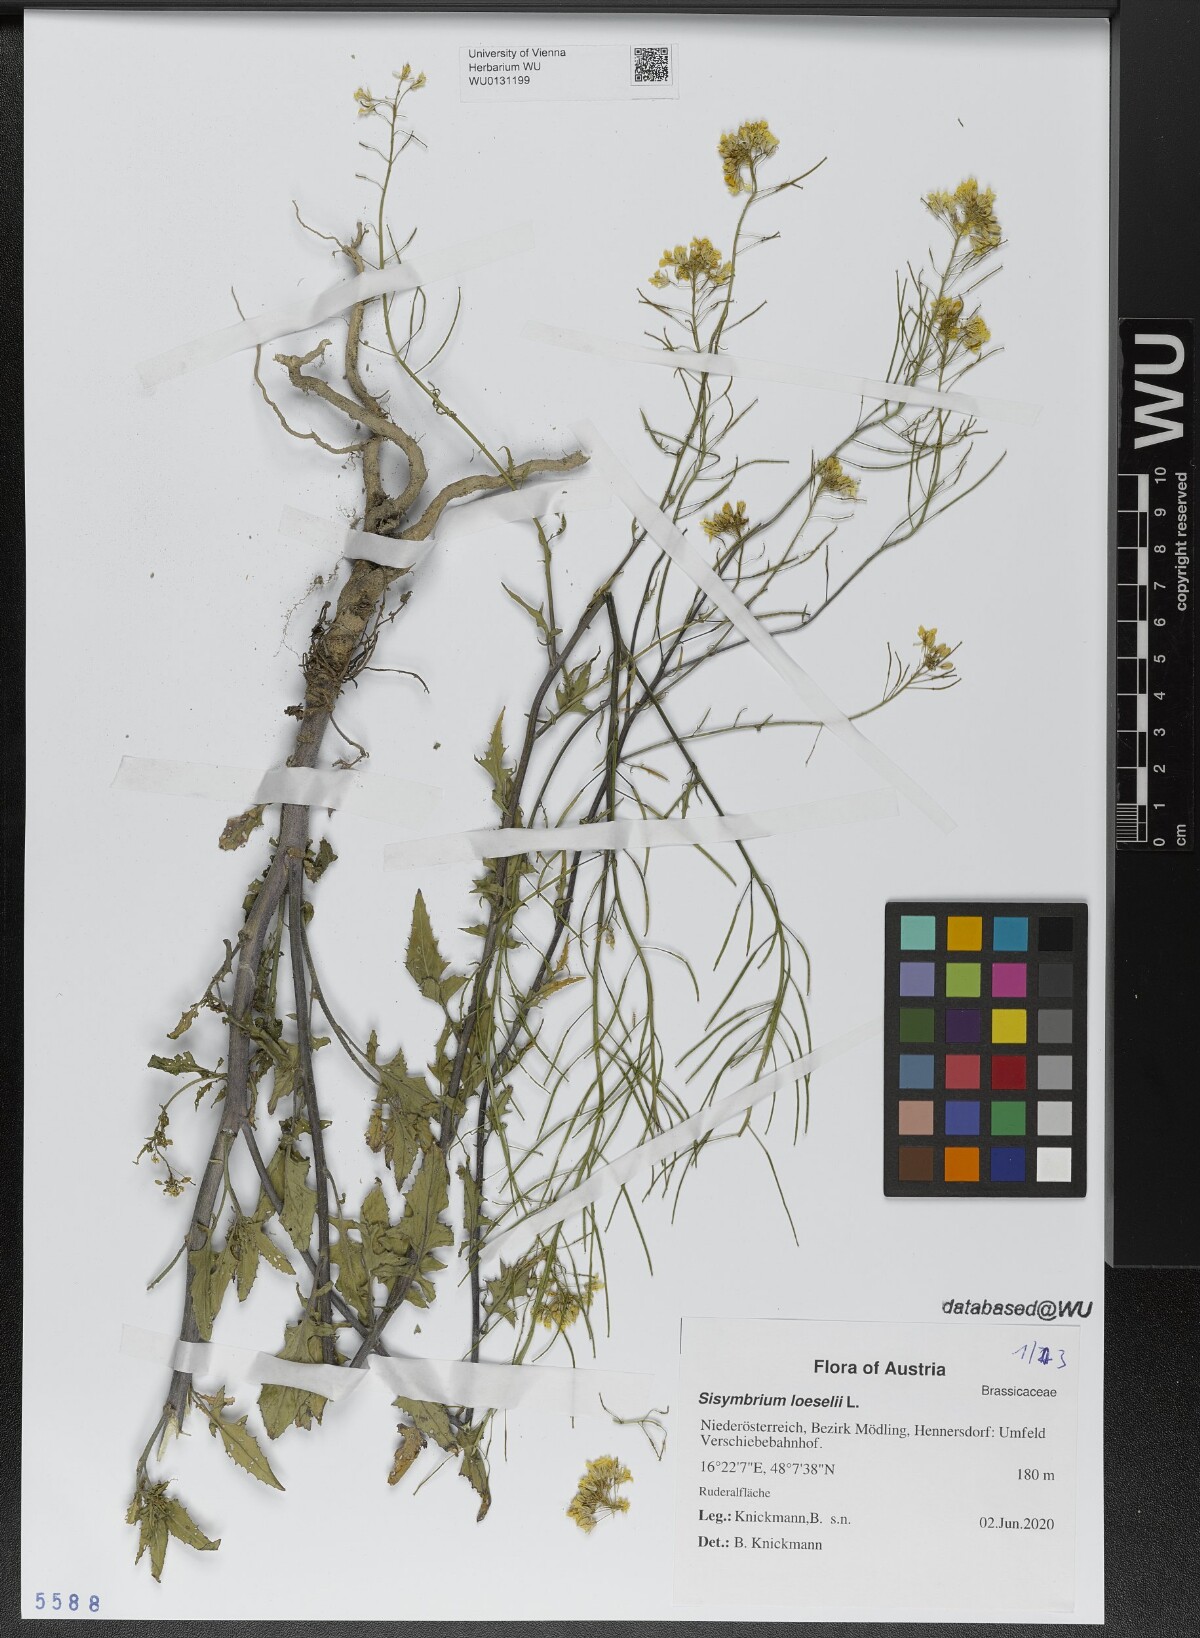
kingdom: Plantae
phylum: Tracheophyta
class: Magnoliopsida
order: Brassicales
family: Brassicaceae
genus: Sisymbrium
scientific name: Sisymbrium loeselii
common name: False london-rocket
